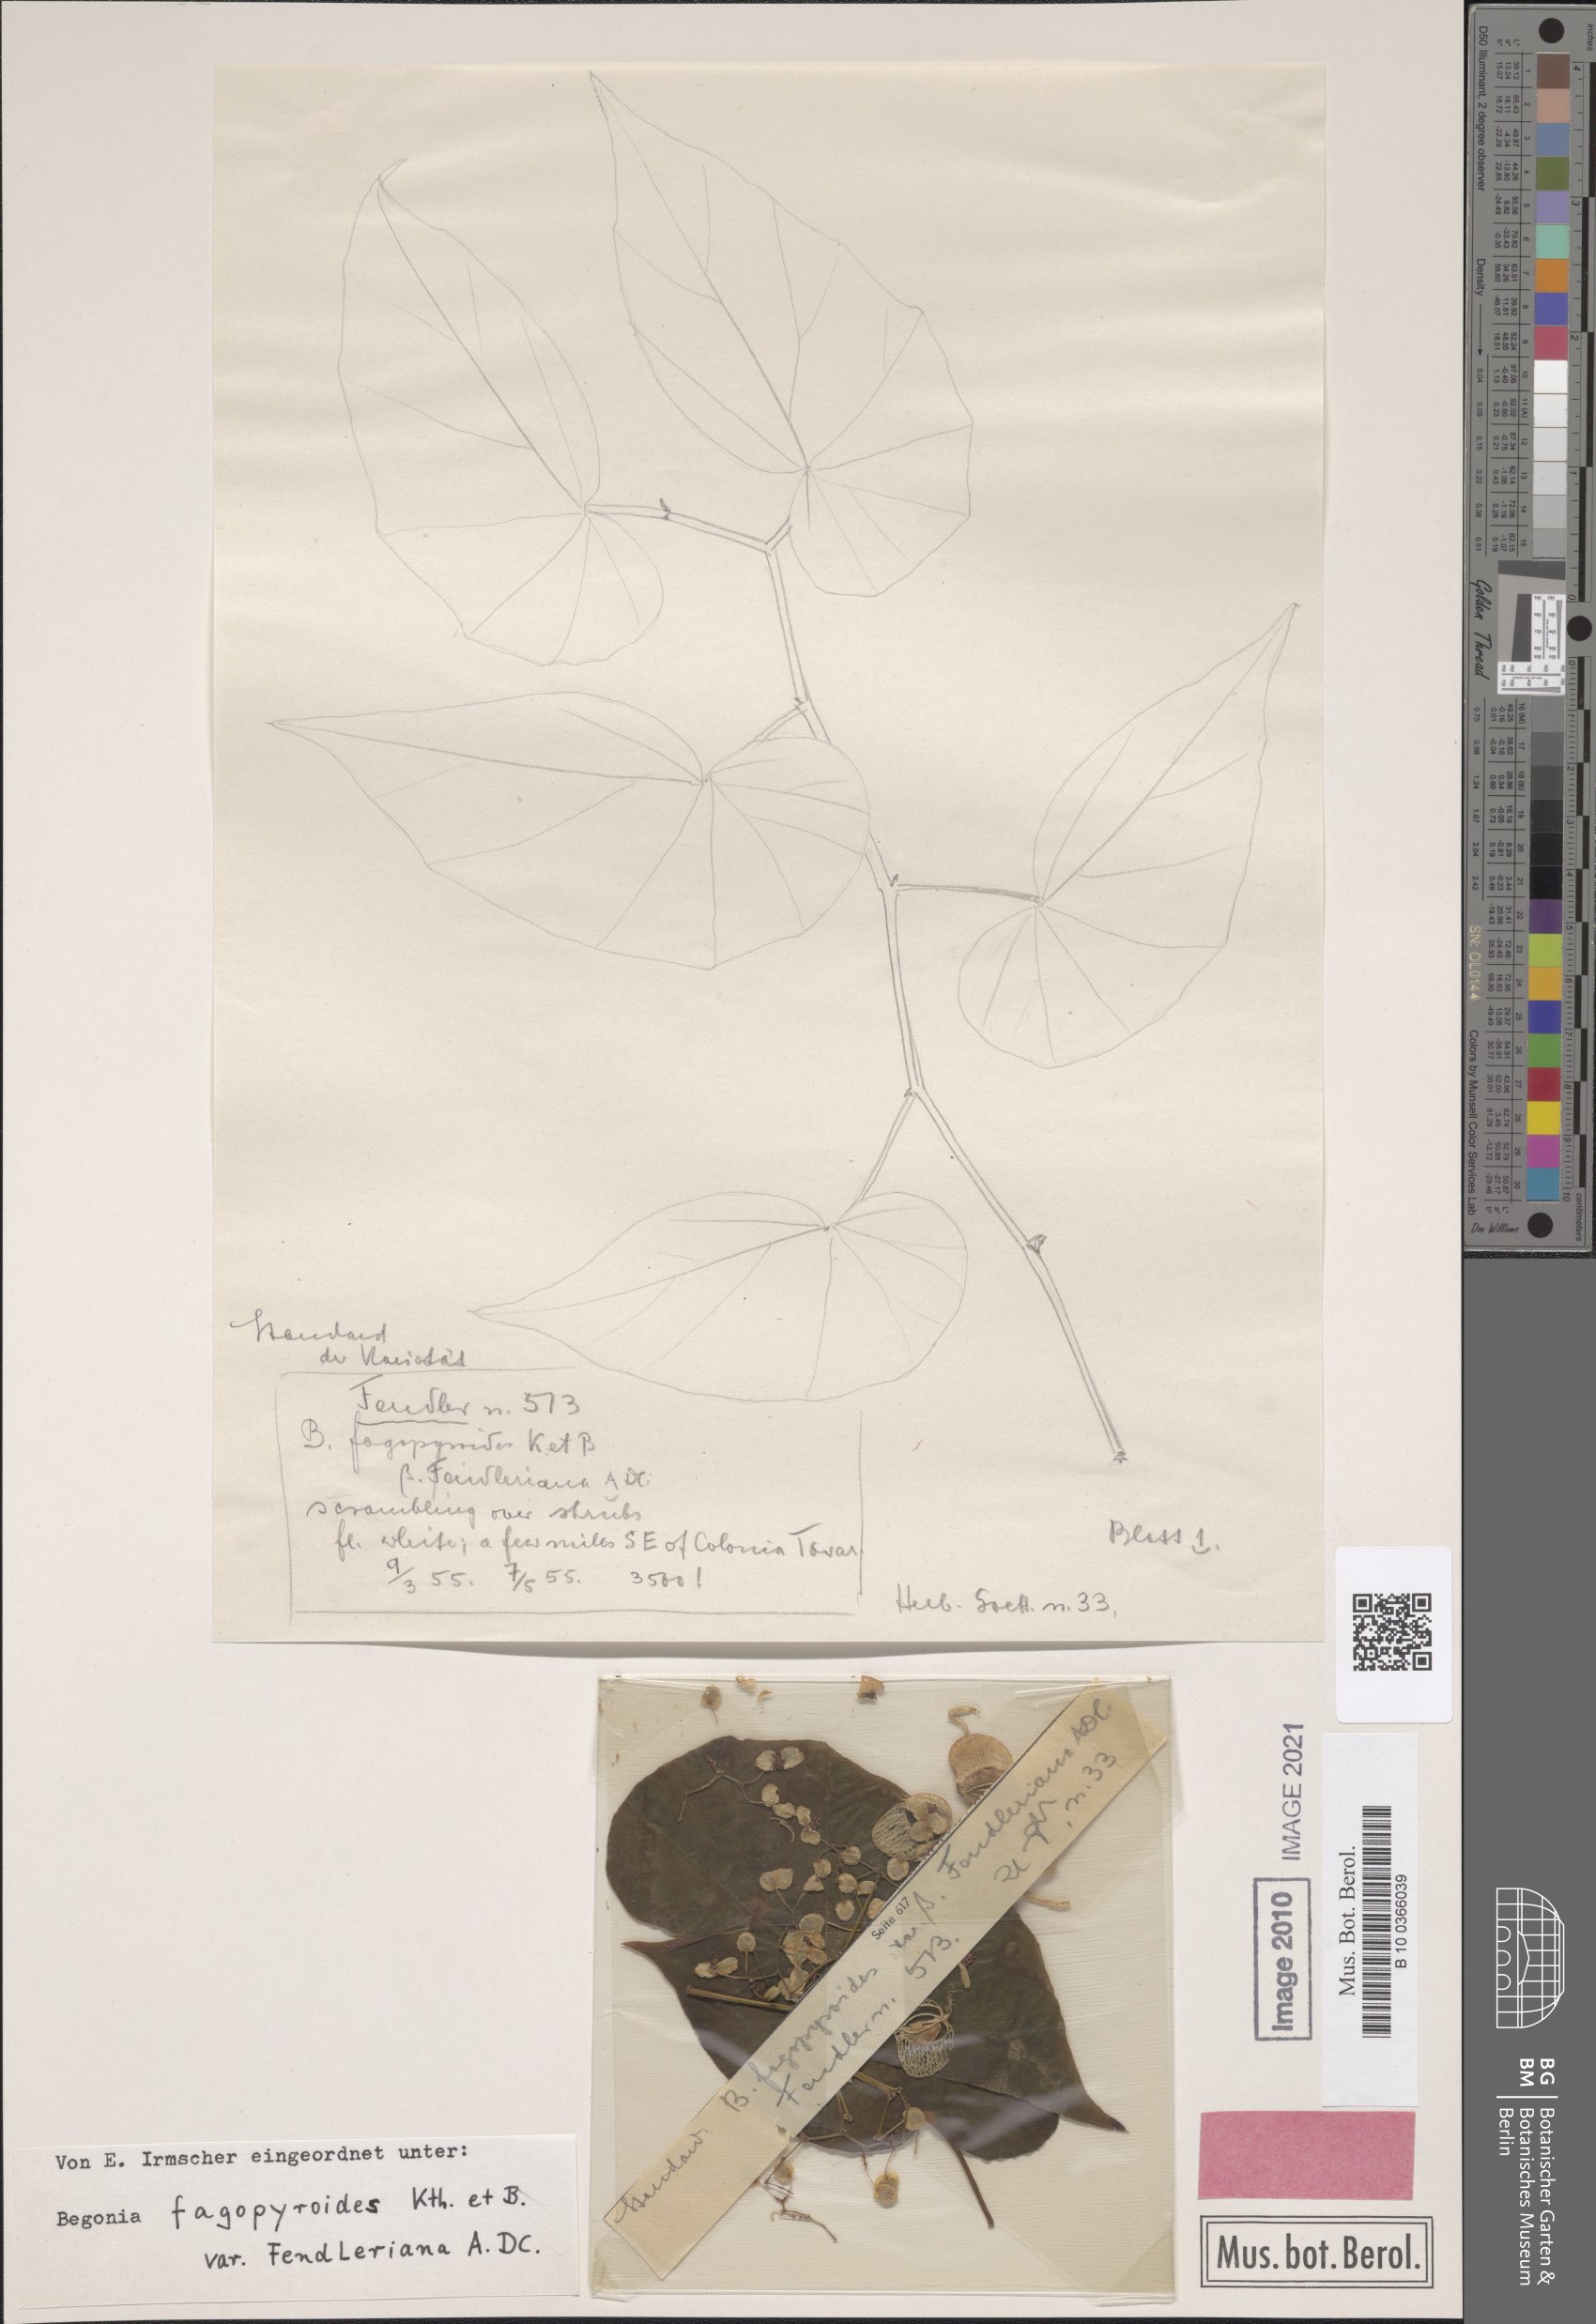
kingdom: Plantae
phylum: Tracheophyta
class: Magnoliopsida
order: Cucurbitales
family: Begoniaceae
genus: Begonia
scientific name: Begonia denticulata
